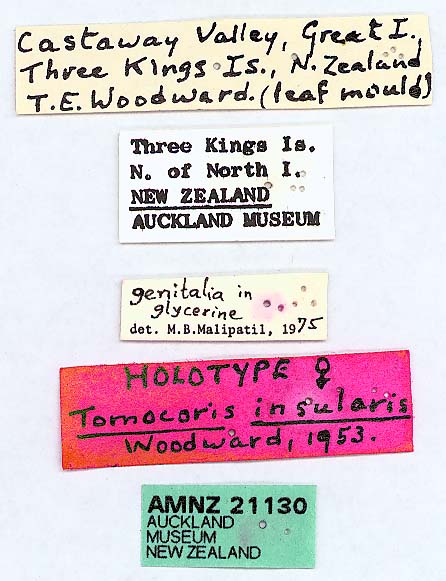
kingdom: Animalia
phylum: Arthropoda
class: Insecta
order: Hemiptera
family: Rhyparochromidae
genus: Paratruncala
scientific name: Paratruncala insularis
